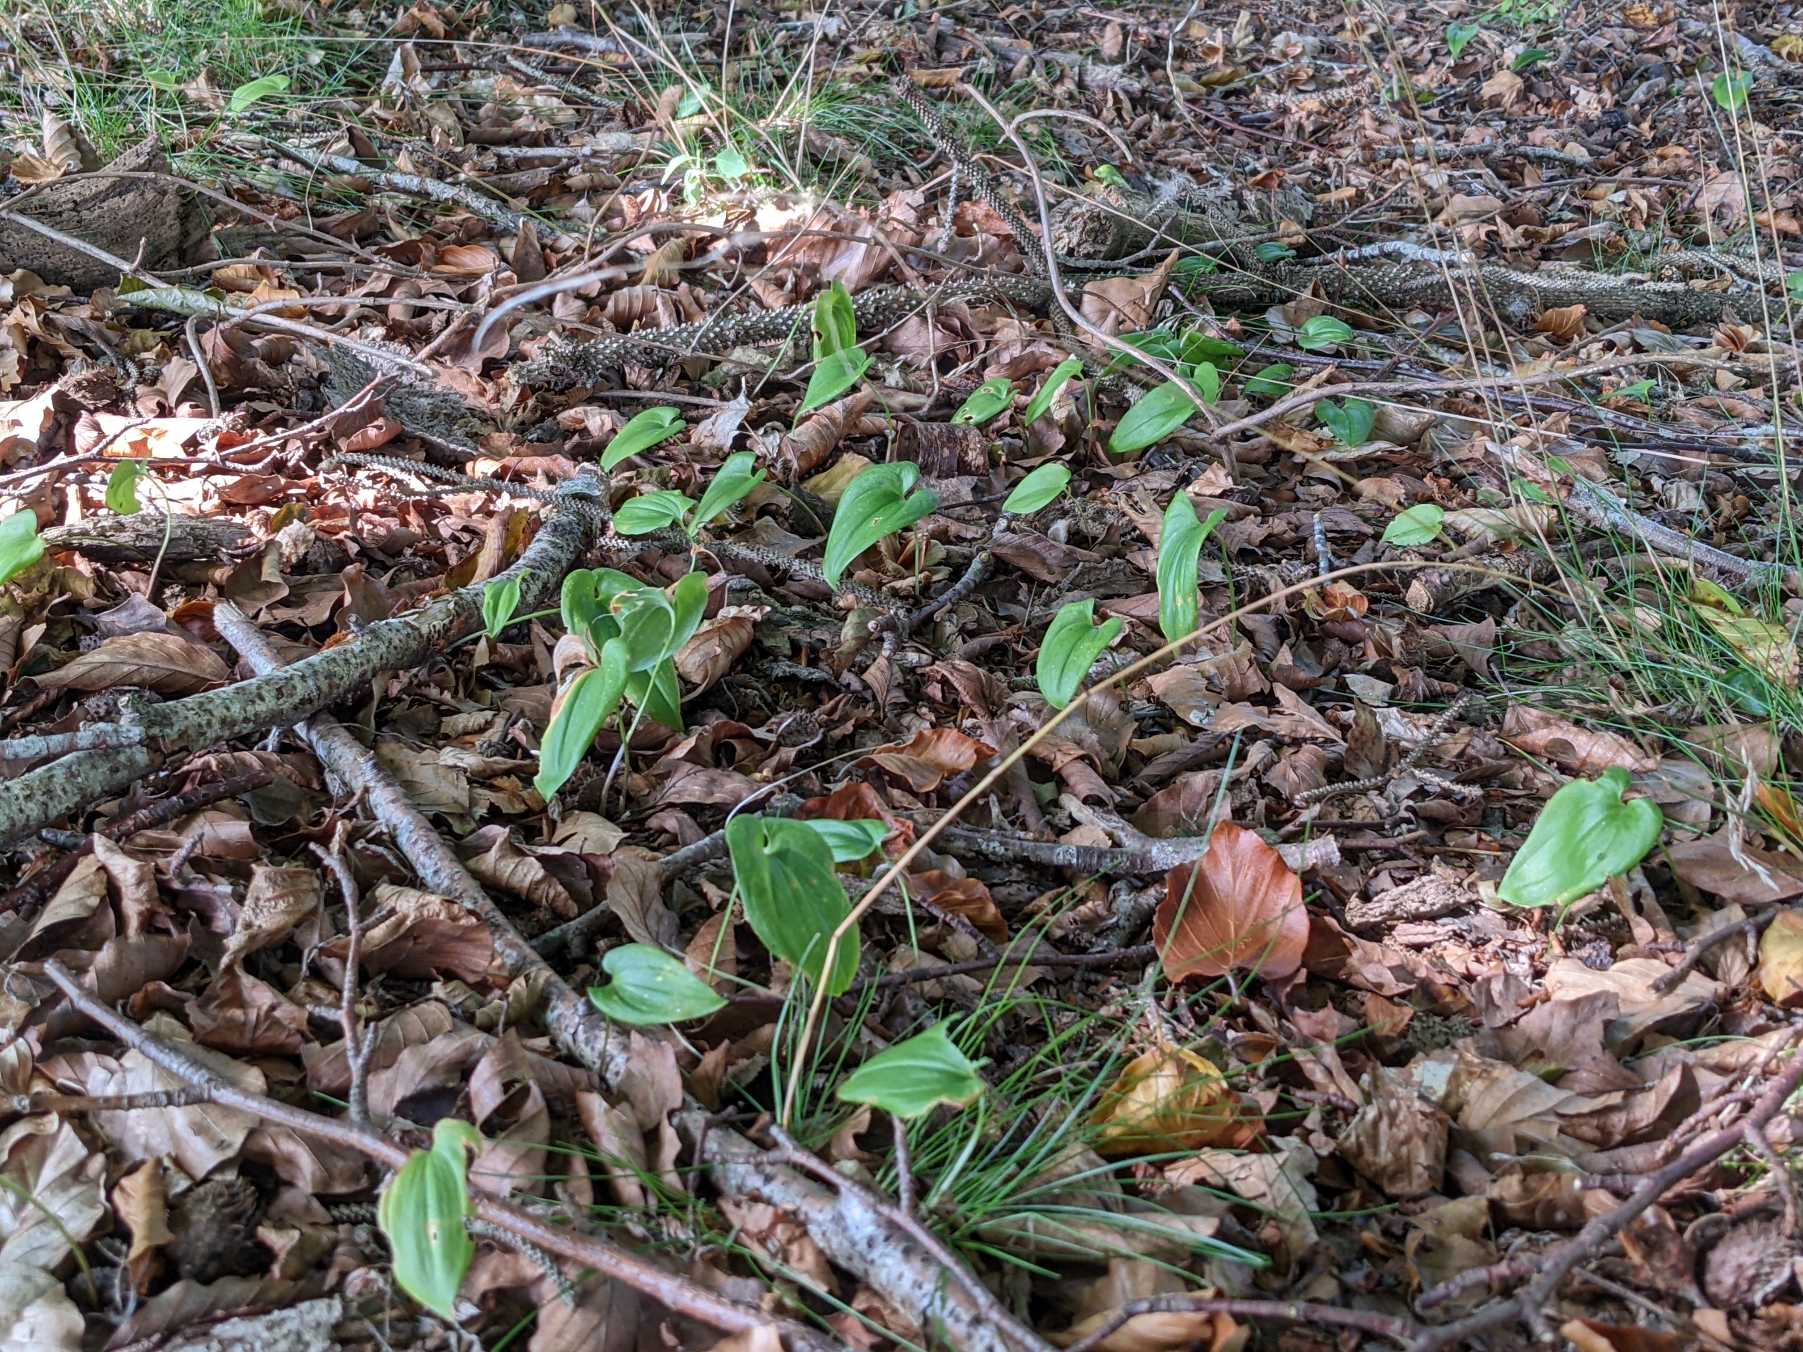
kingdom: Plantae
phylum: Tracheophyta
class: Liliopsida
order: Asparagales
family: Asparagaceae
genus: Maianthemum
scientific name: Maianthemum bifolium
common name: Majblomst
